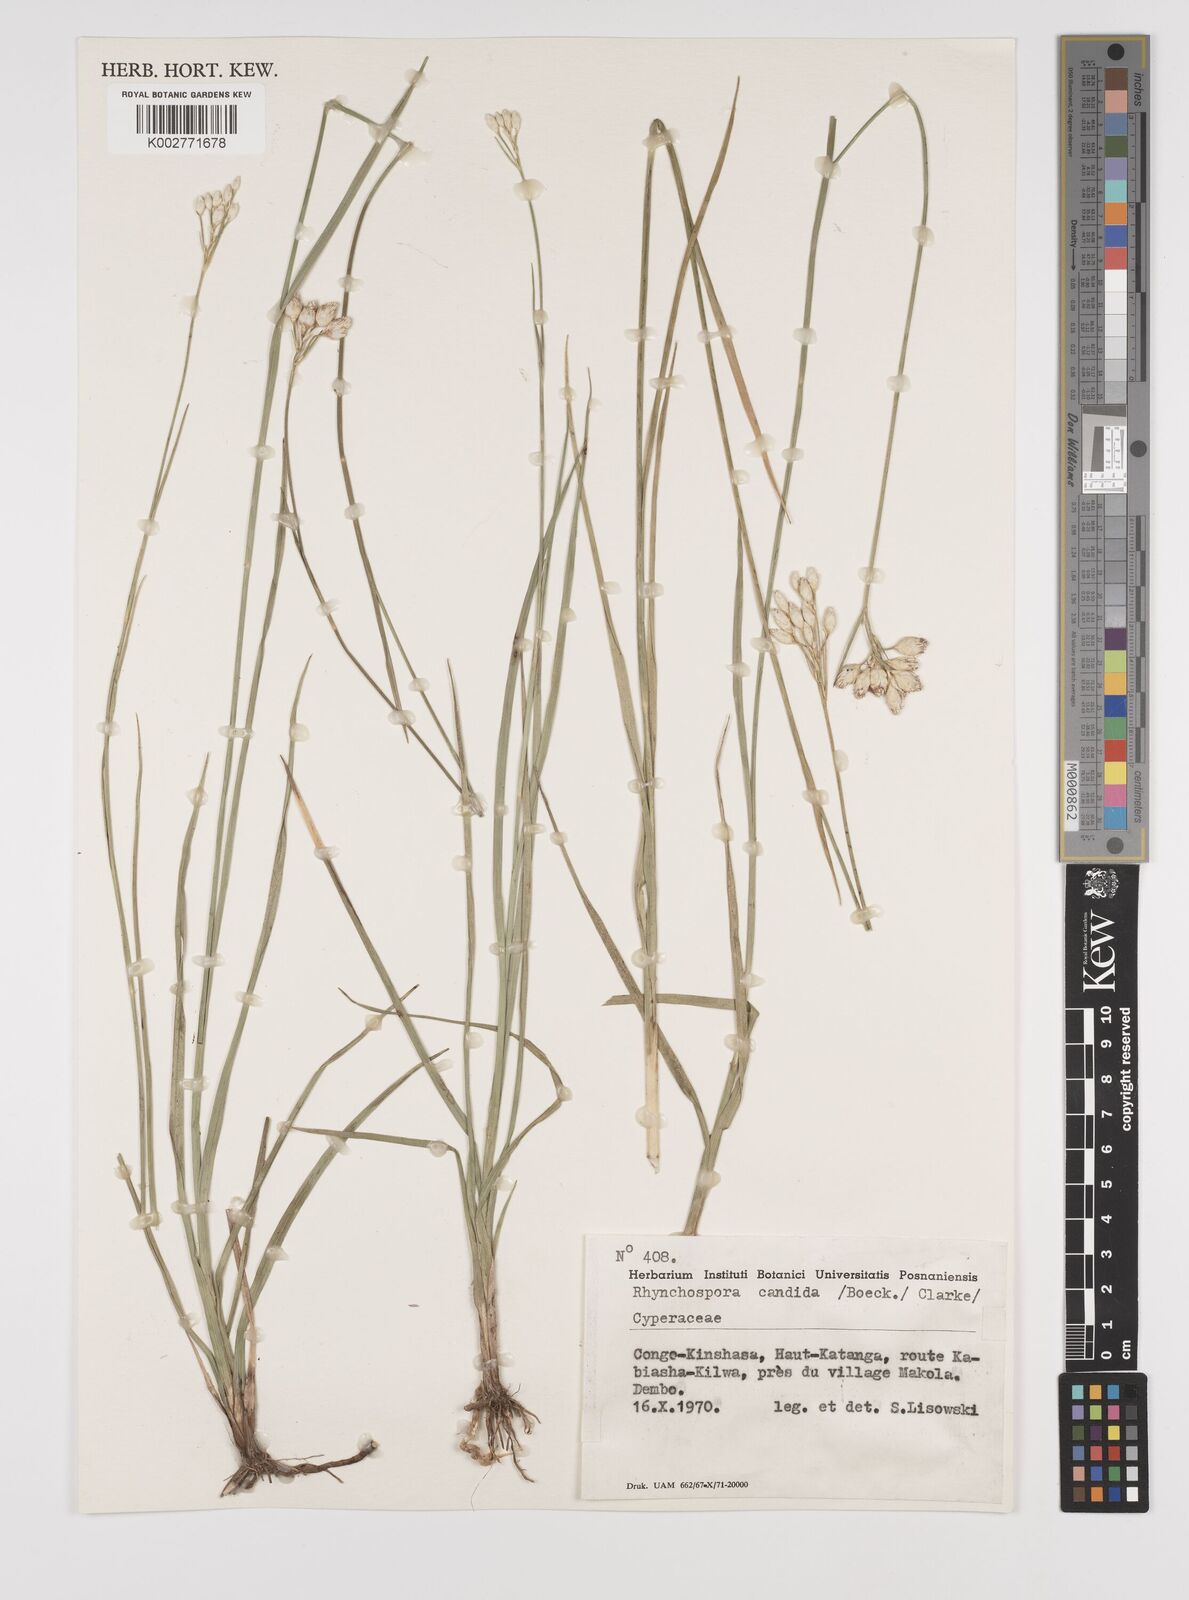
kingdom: Plantae
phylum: Tracheophyta
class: Liliopsida
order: Poales
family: Cyperaceae
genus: Rhynchospora
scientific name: Rhynchospora candida
